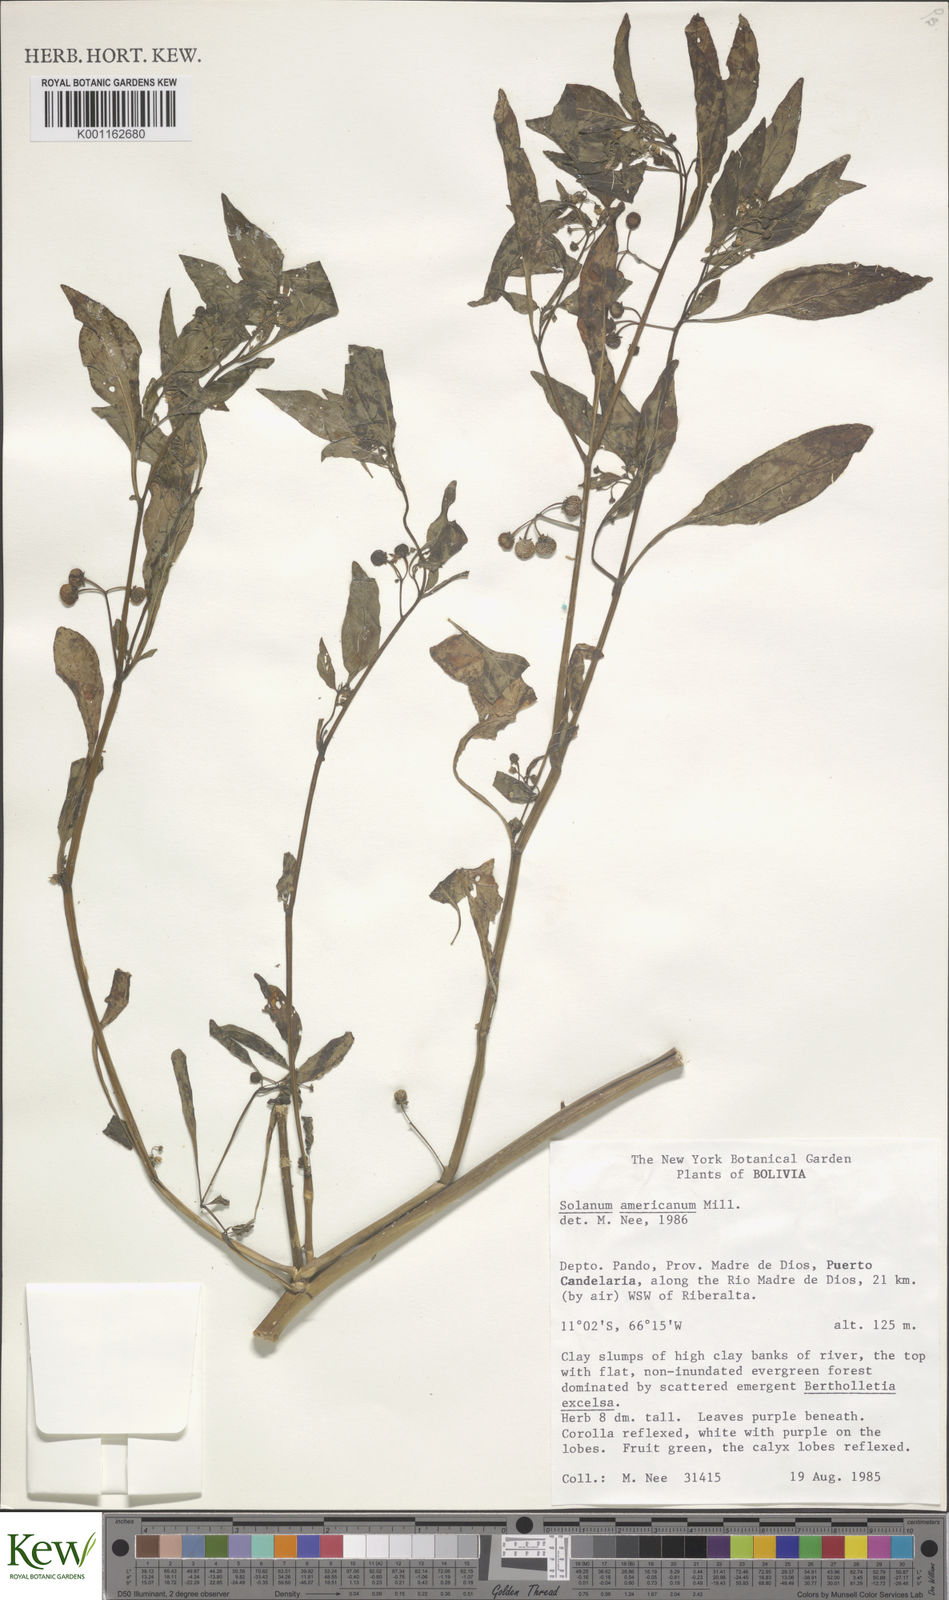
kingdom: Plantae
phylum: Tracheophyta
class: Magnoliopsida
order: Solanales
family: Solanaceae
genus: Solanum
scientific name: Solanum americanum
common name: American black nightshade
